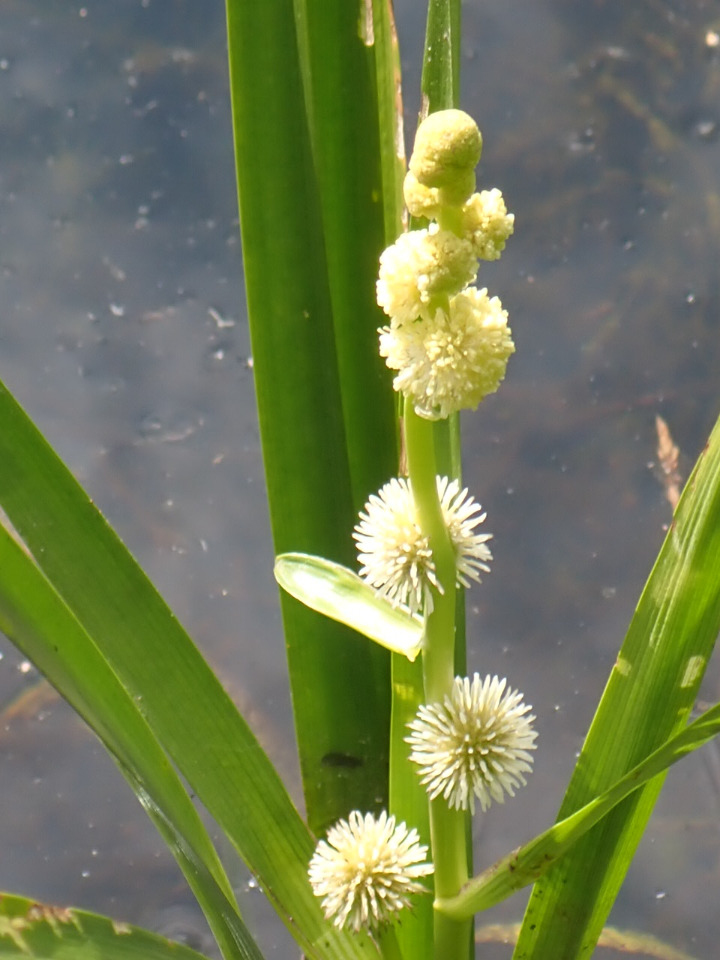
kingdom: Plantae
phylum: Tracheophyta
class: Liliopsida
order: Poales
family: Typhaceae
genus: Sparganium
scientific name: Sparganium emersum
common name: Enkelt pindsvineknop
